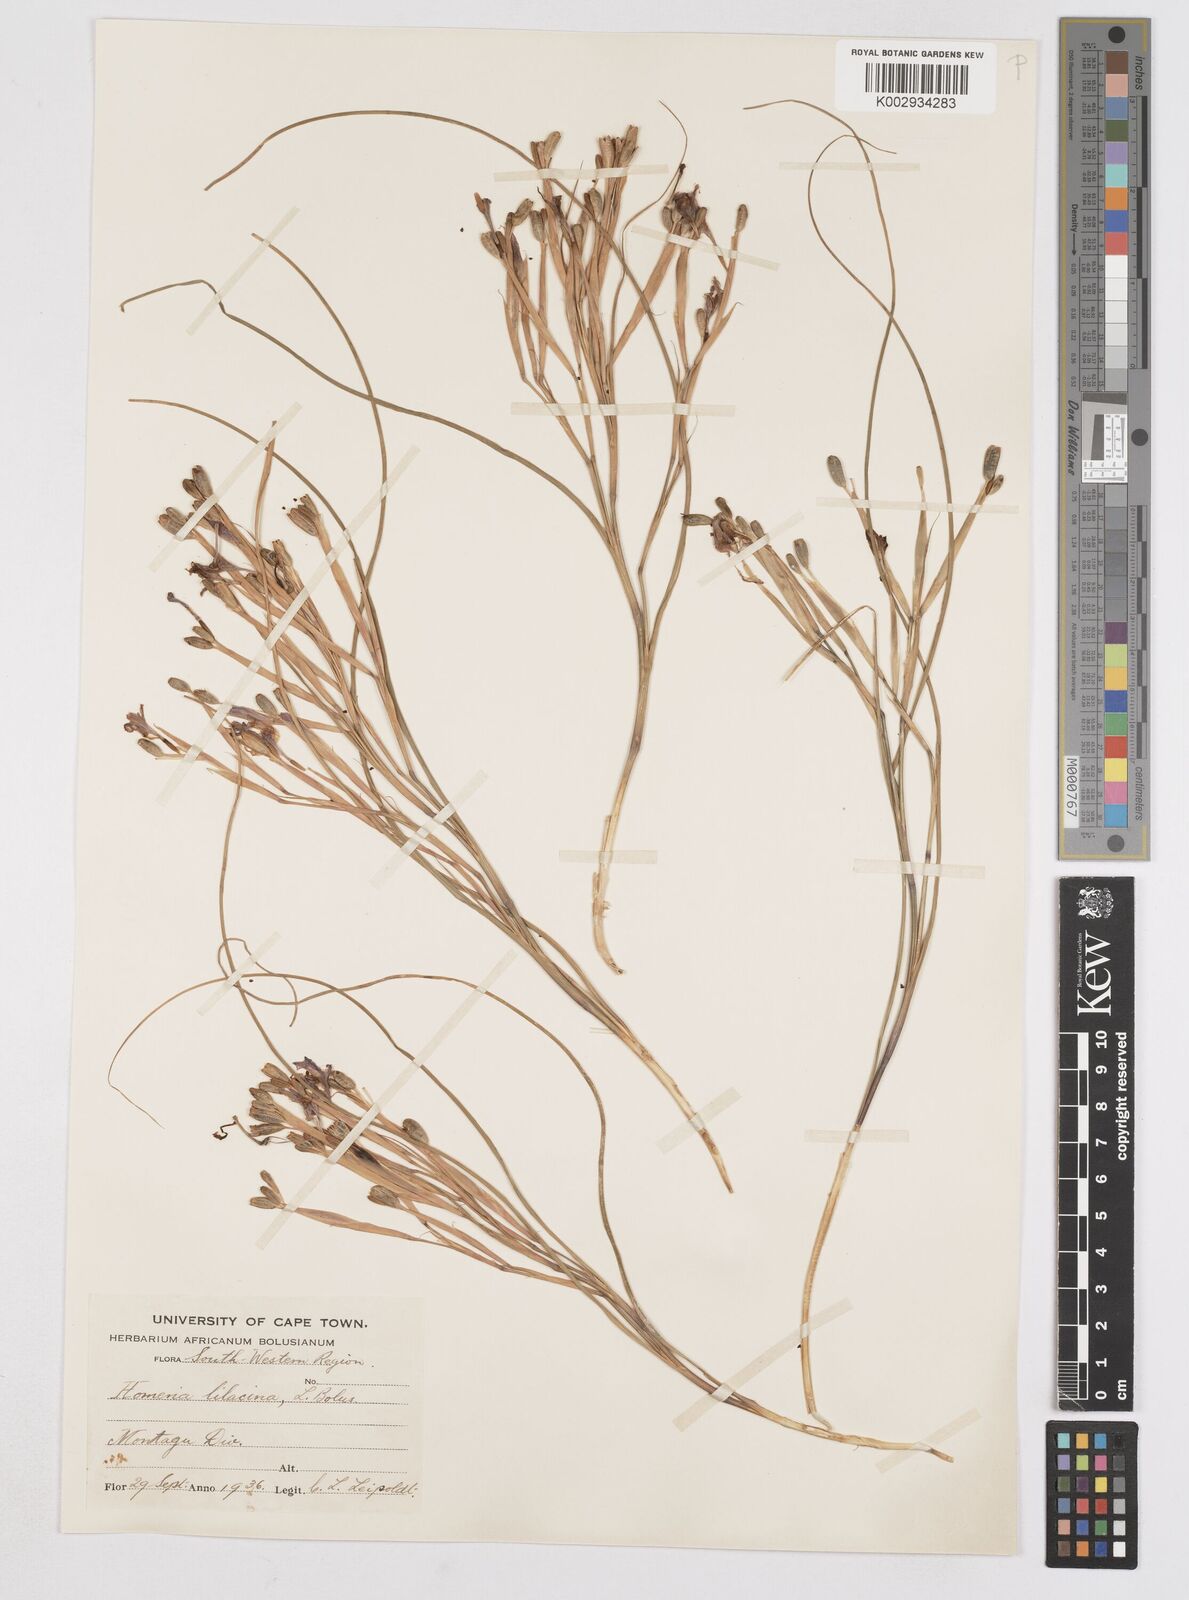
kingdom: Plantae
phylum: Tracheophyta
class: Liliopsida
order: Asparagales
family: Iridaceae
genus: Moraea
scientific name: Moraea
